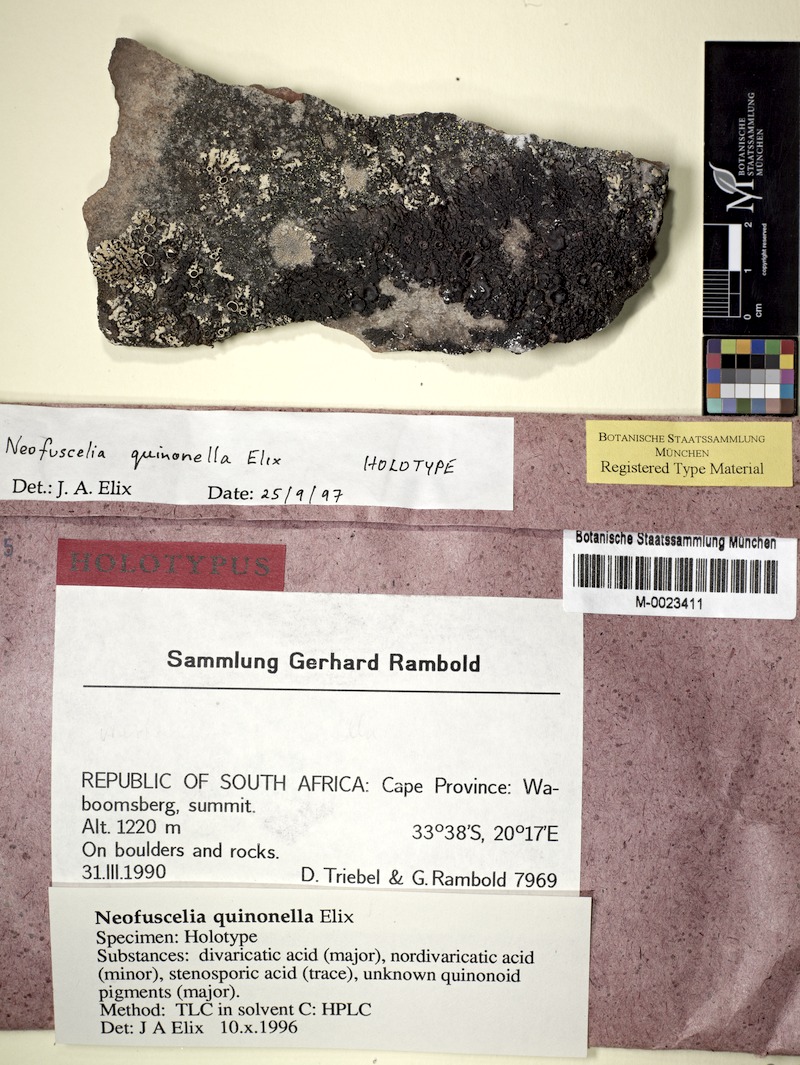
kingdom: Fungi
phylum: Ascomycota
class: Lecanoromycetes
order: Lecanorales
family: Parmeliaceae
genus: Xanthoparmelia
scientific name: Xanthoparmelia quinonella
